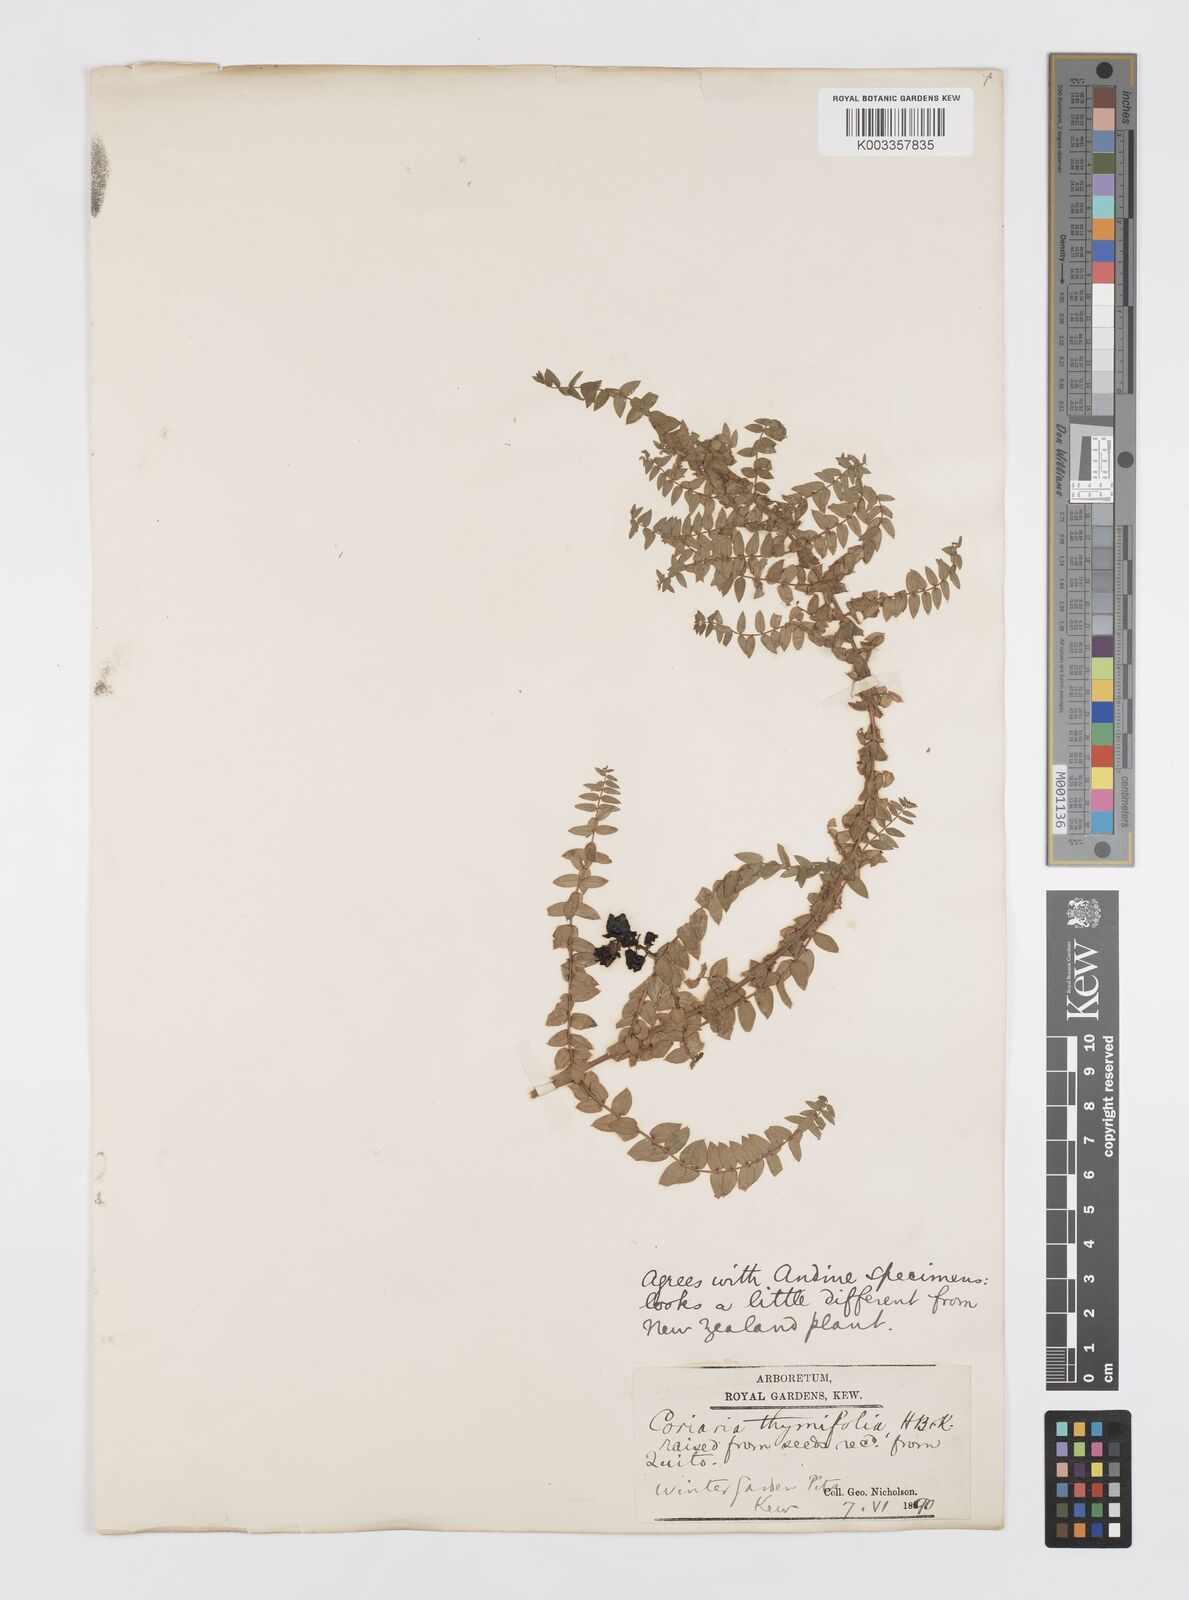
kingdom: Plantae
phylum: Tracheophyta
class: Magnoliopsida
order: Cucurbitales
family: Coriariaceae
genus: Coriaria
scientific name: Coriaria microphylla
